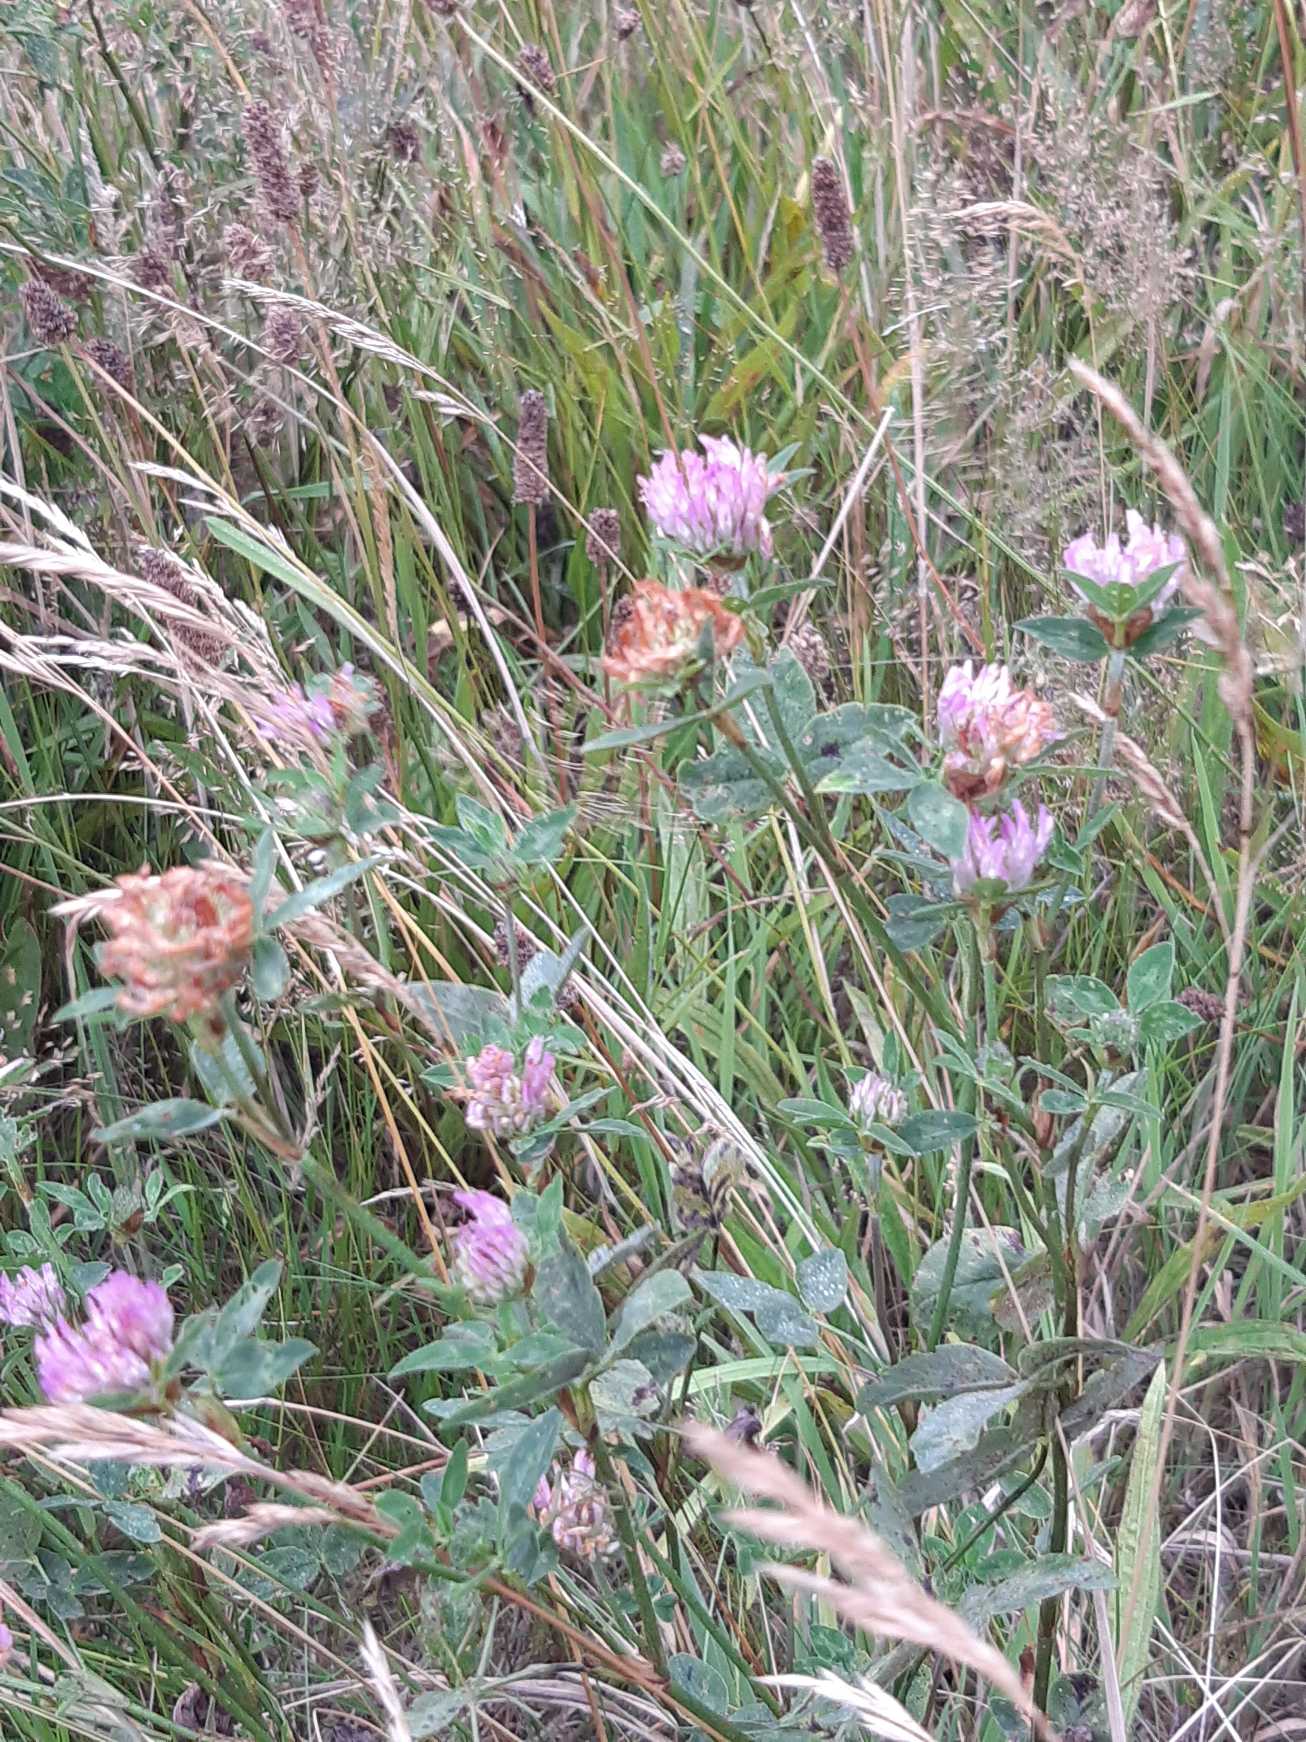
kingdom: Plantae
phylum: Tracheophyta
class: Magnoliopsida
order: Fabales
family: Fabaceae
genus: Trifolium
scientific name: Trifolium pratense
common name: Rød-kløver
